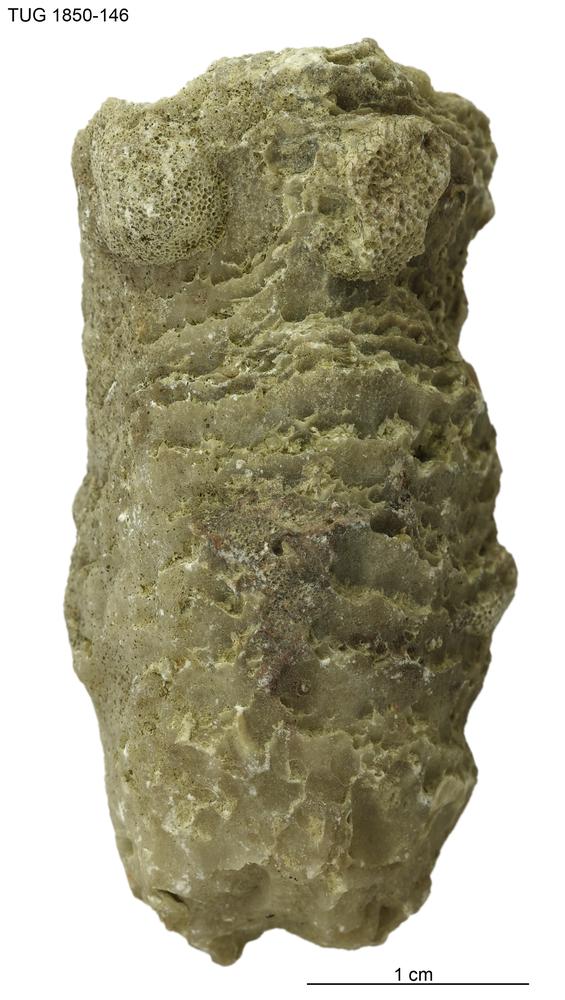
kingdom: Animalia
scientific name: Animalia
